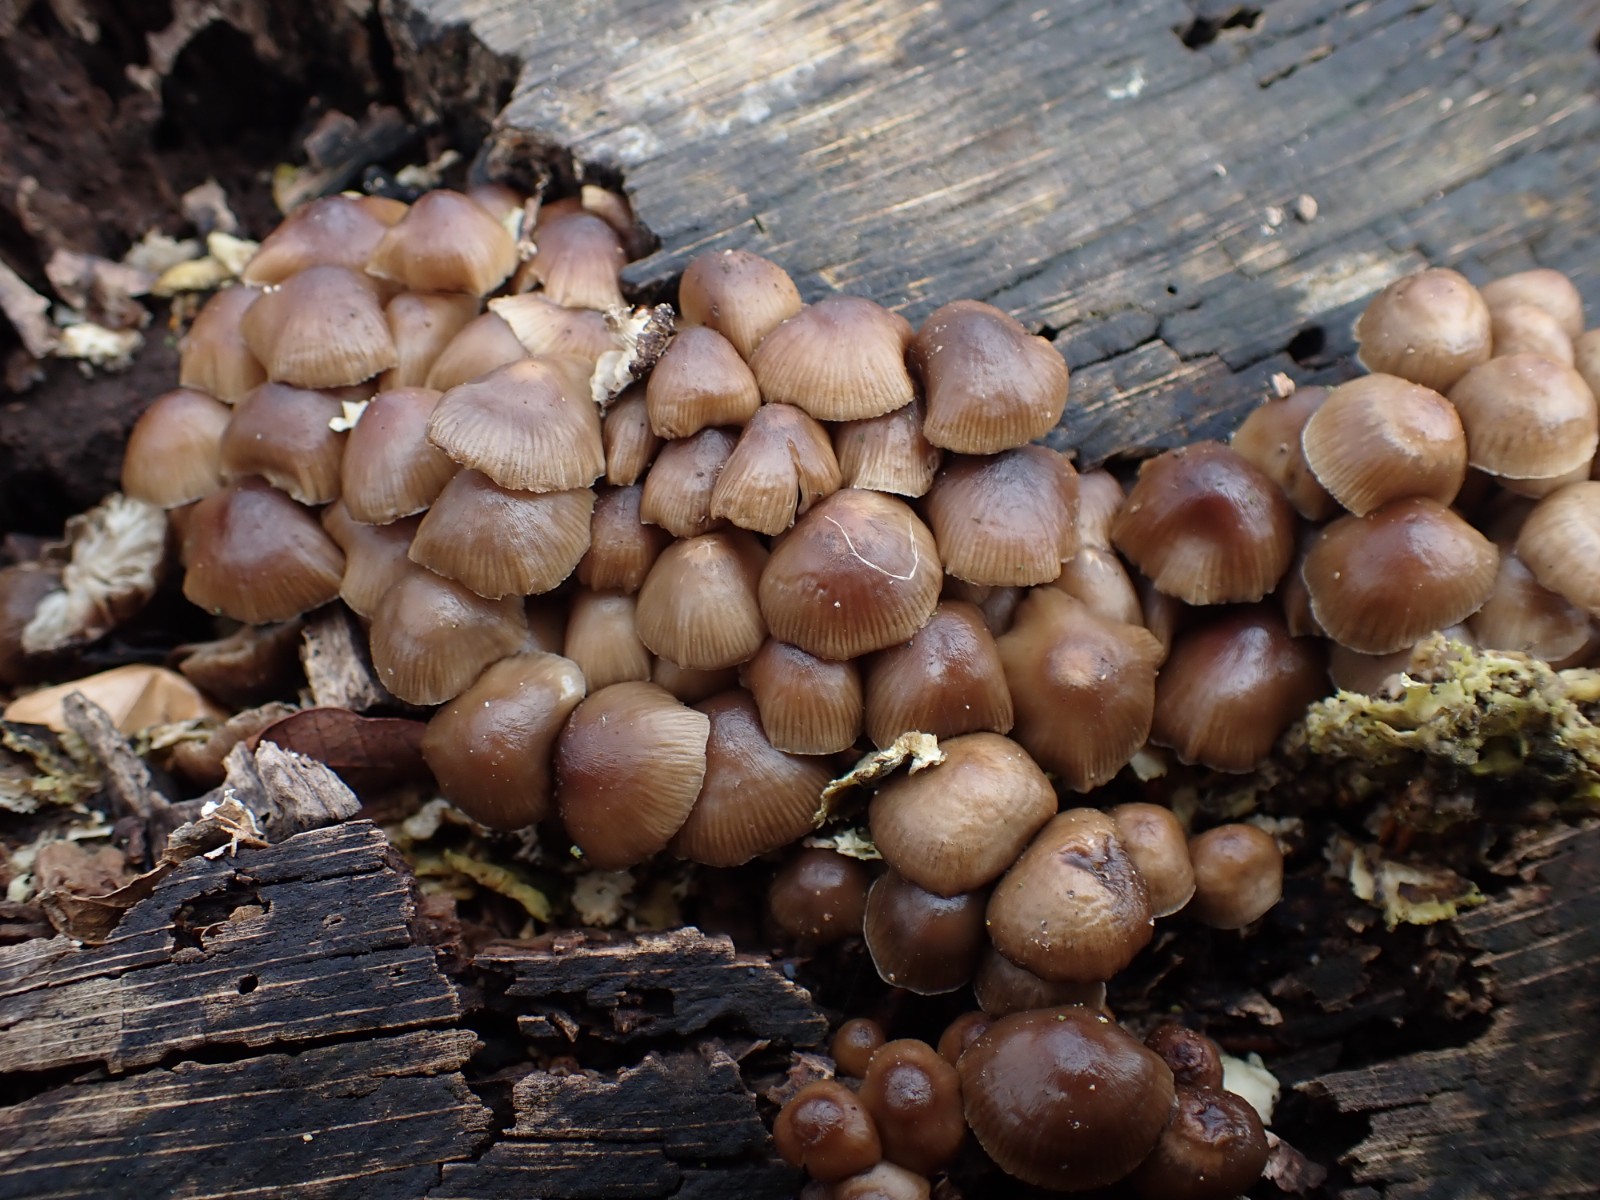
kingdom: Fungi
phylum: Basidiomycota
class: Agaricomycetes
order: Agaricales
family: Mycenaceae
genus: Mycena
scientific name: Mycena tintinnabulum
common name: vinter-huesvamp
